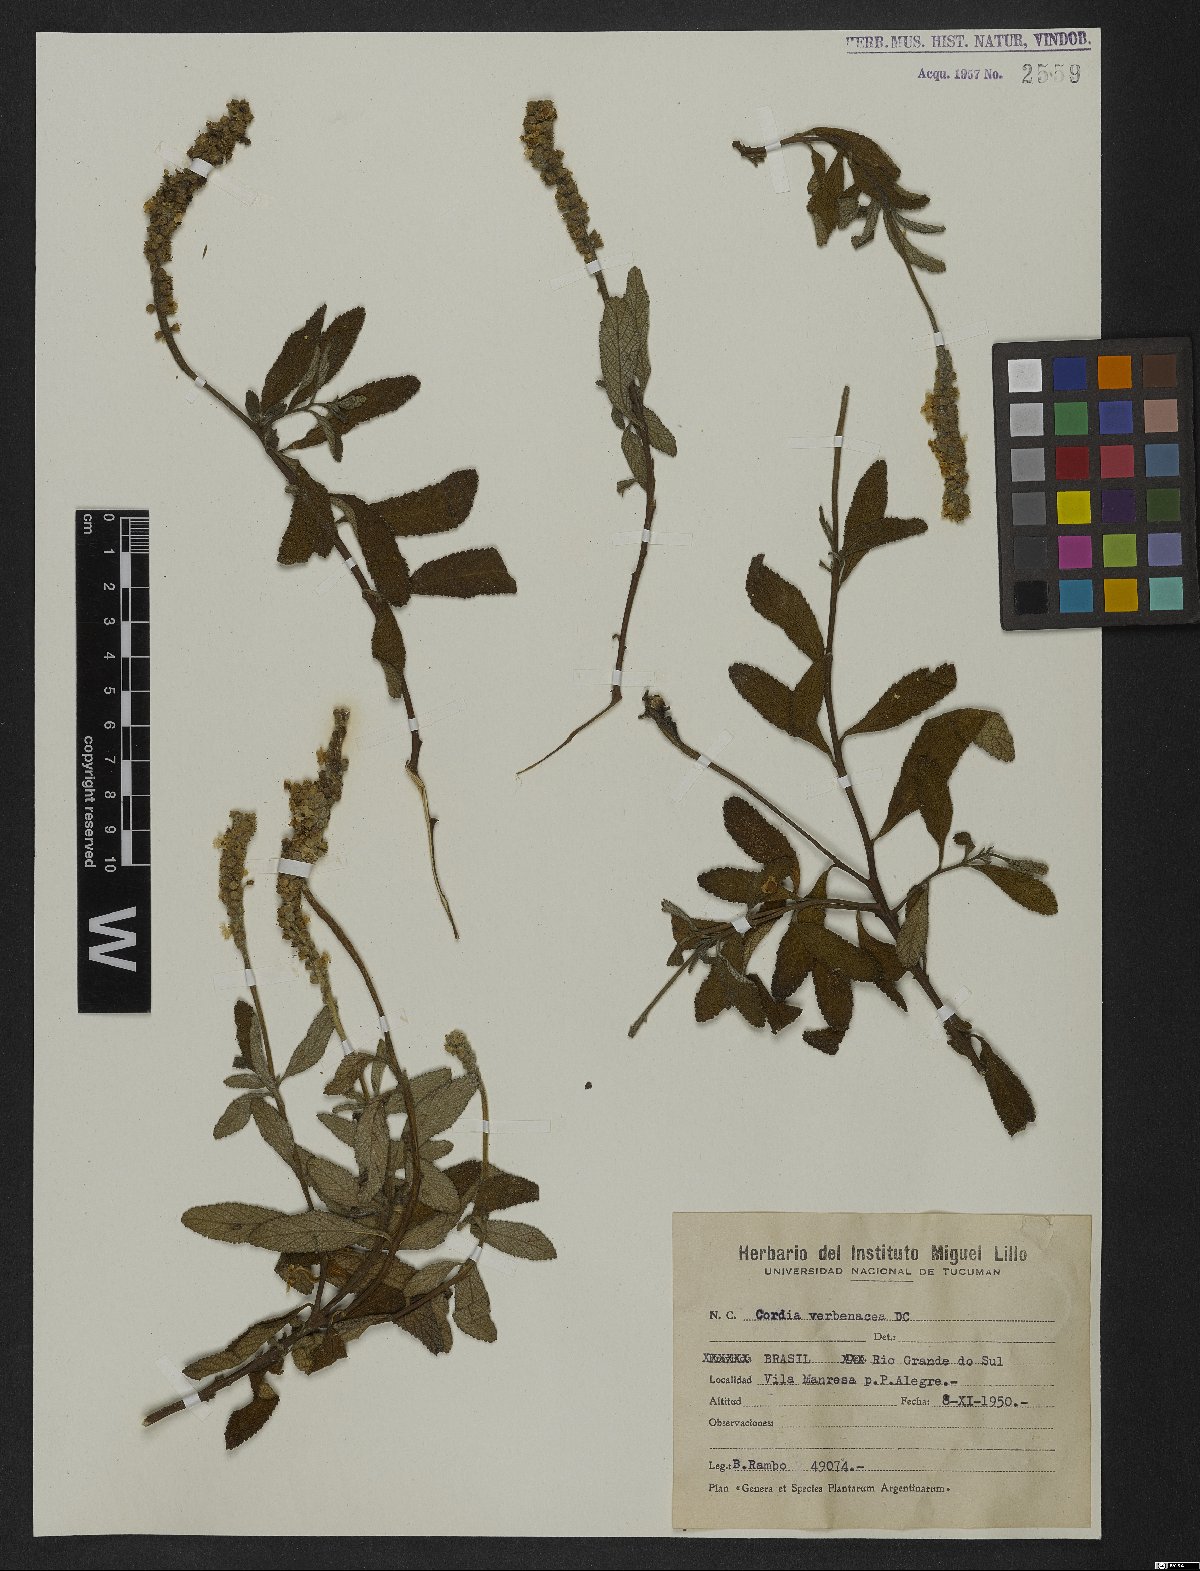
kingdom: Plantae
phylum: Tracheophyta
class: Magnoliopsida
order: Boraginales
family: Cordiaceae
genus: Varronia
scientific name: Varronia curassavica
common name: Black sage
